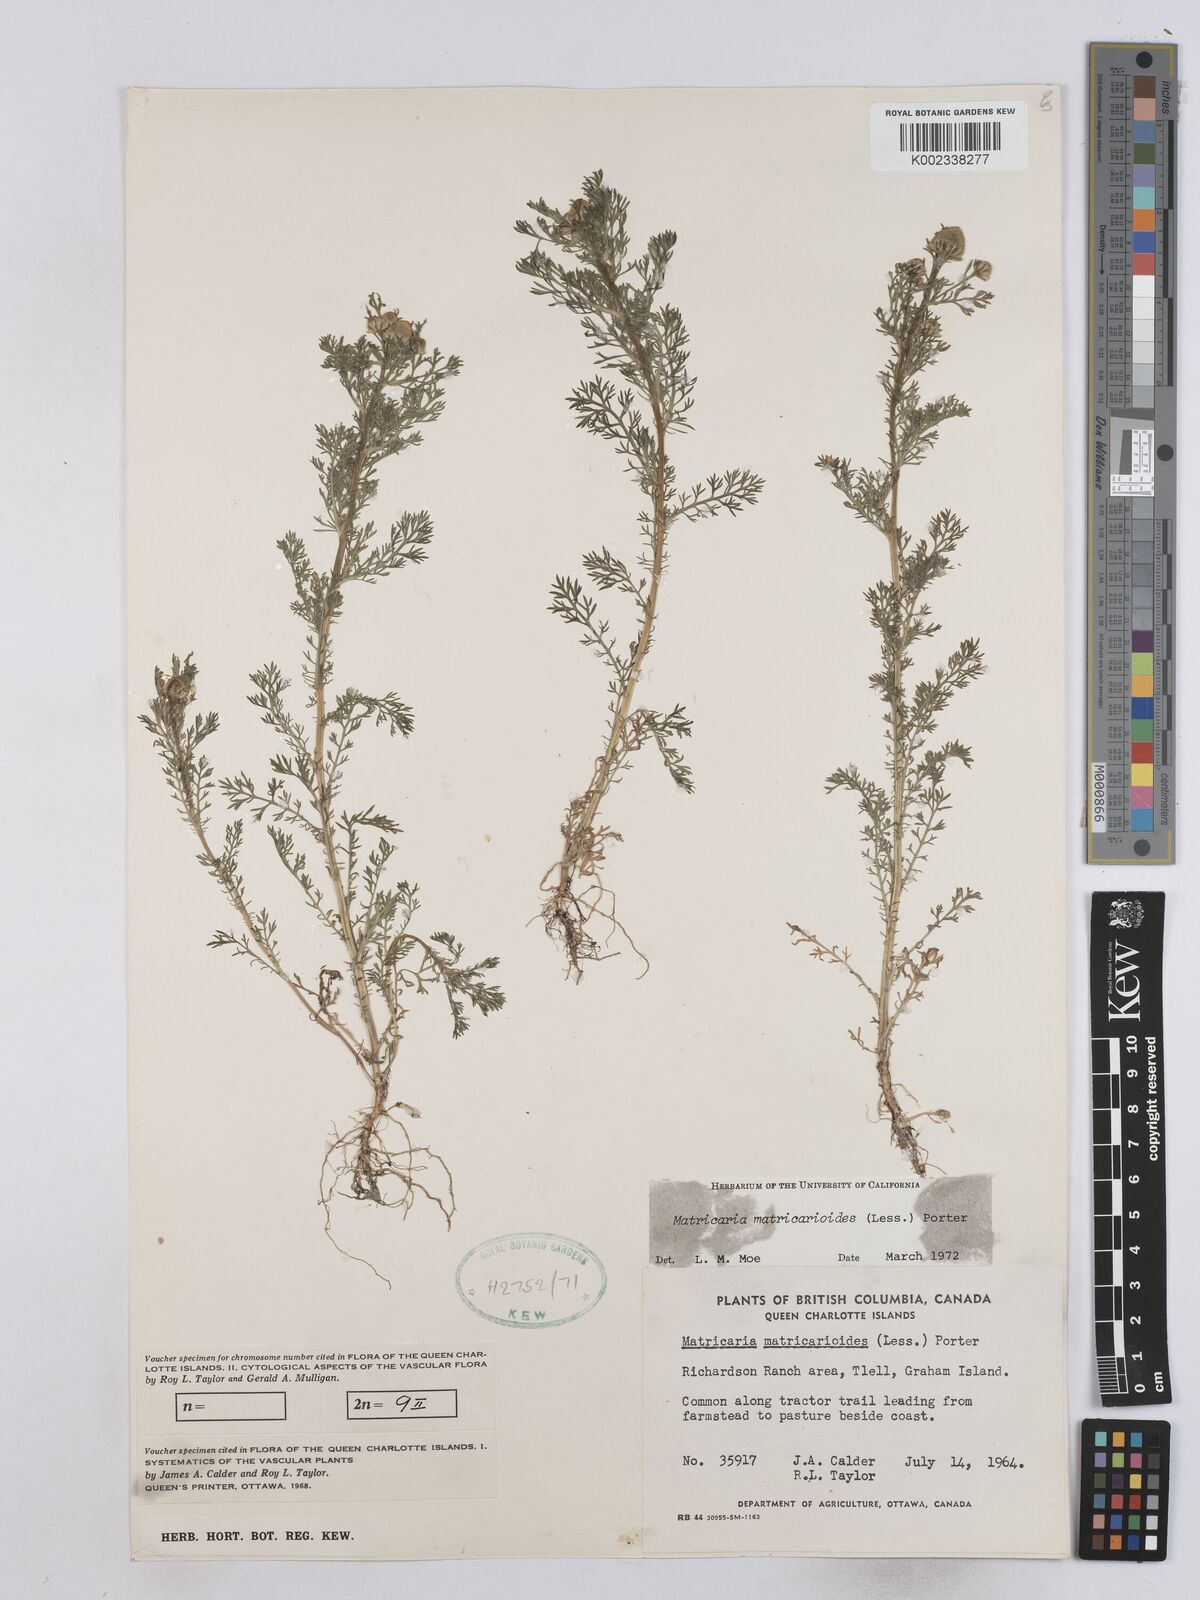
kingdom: Plantae
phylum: Tracheophyta
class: Magnoliopsida
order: Asterales
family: Asteraceae
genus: Matricaria
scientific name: Matricaria discoidea
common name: Disc mayweed
